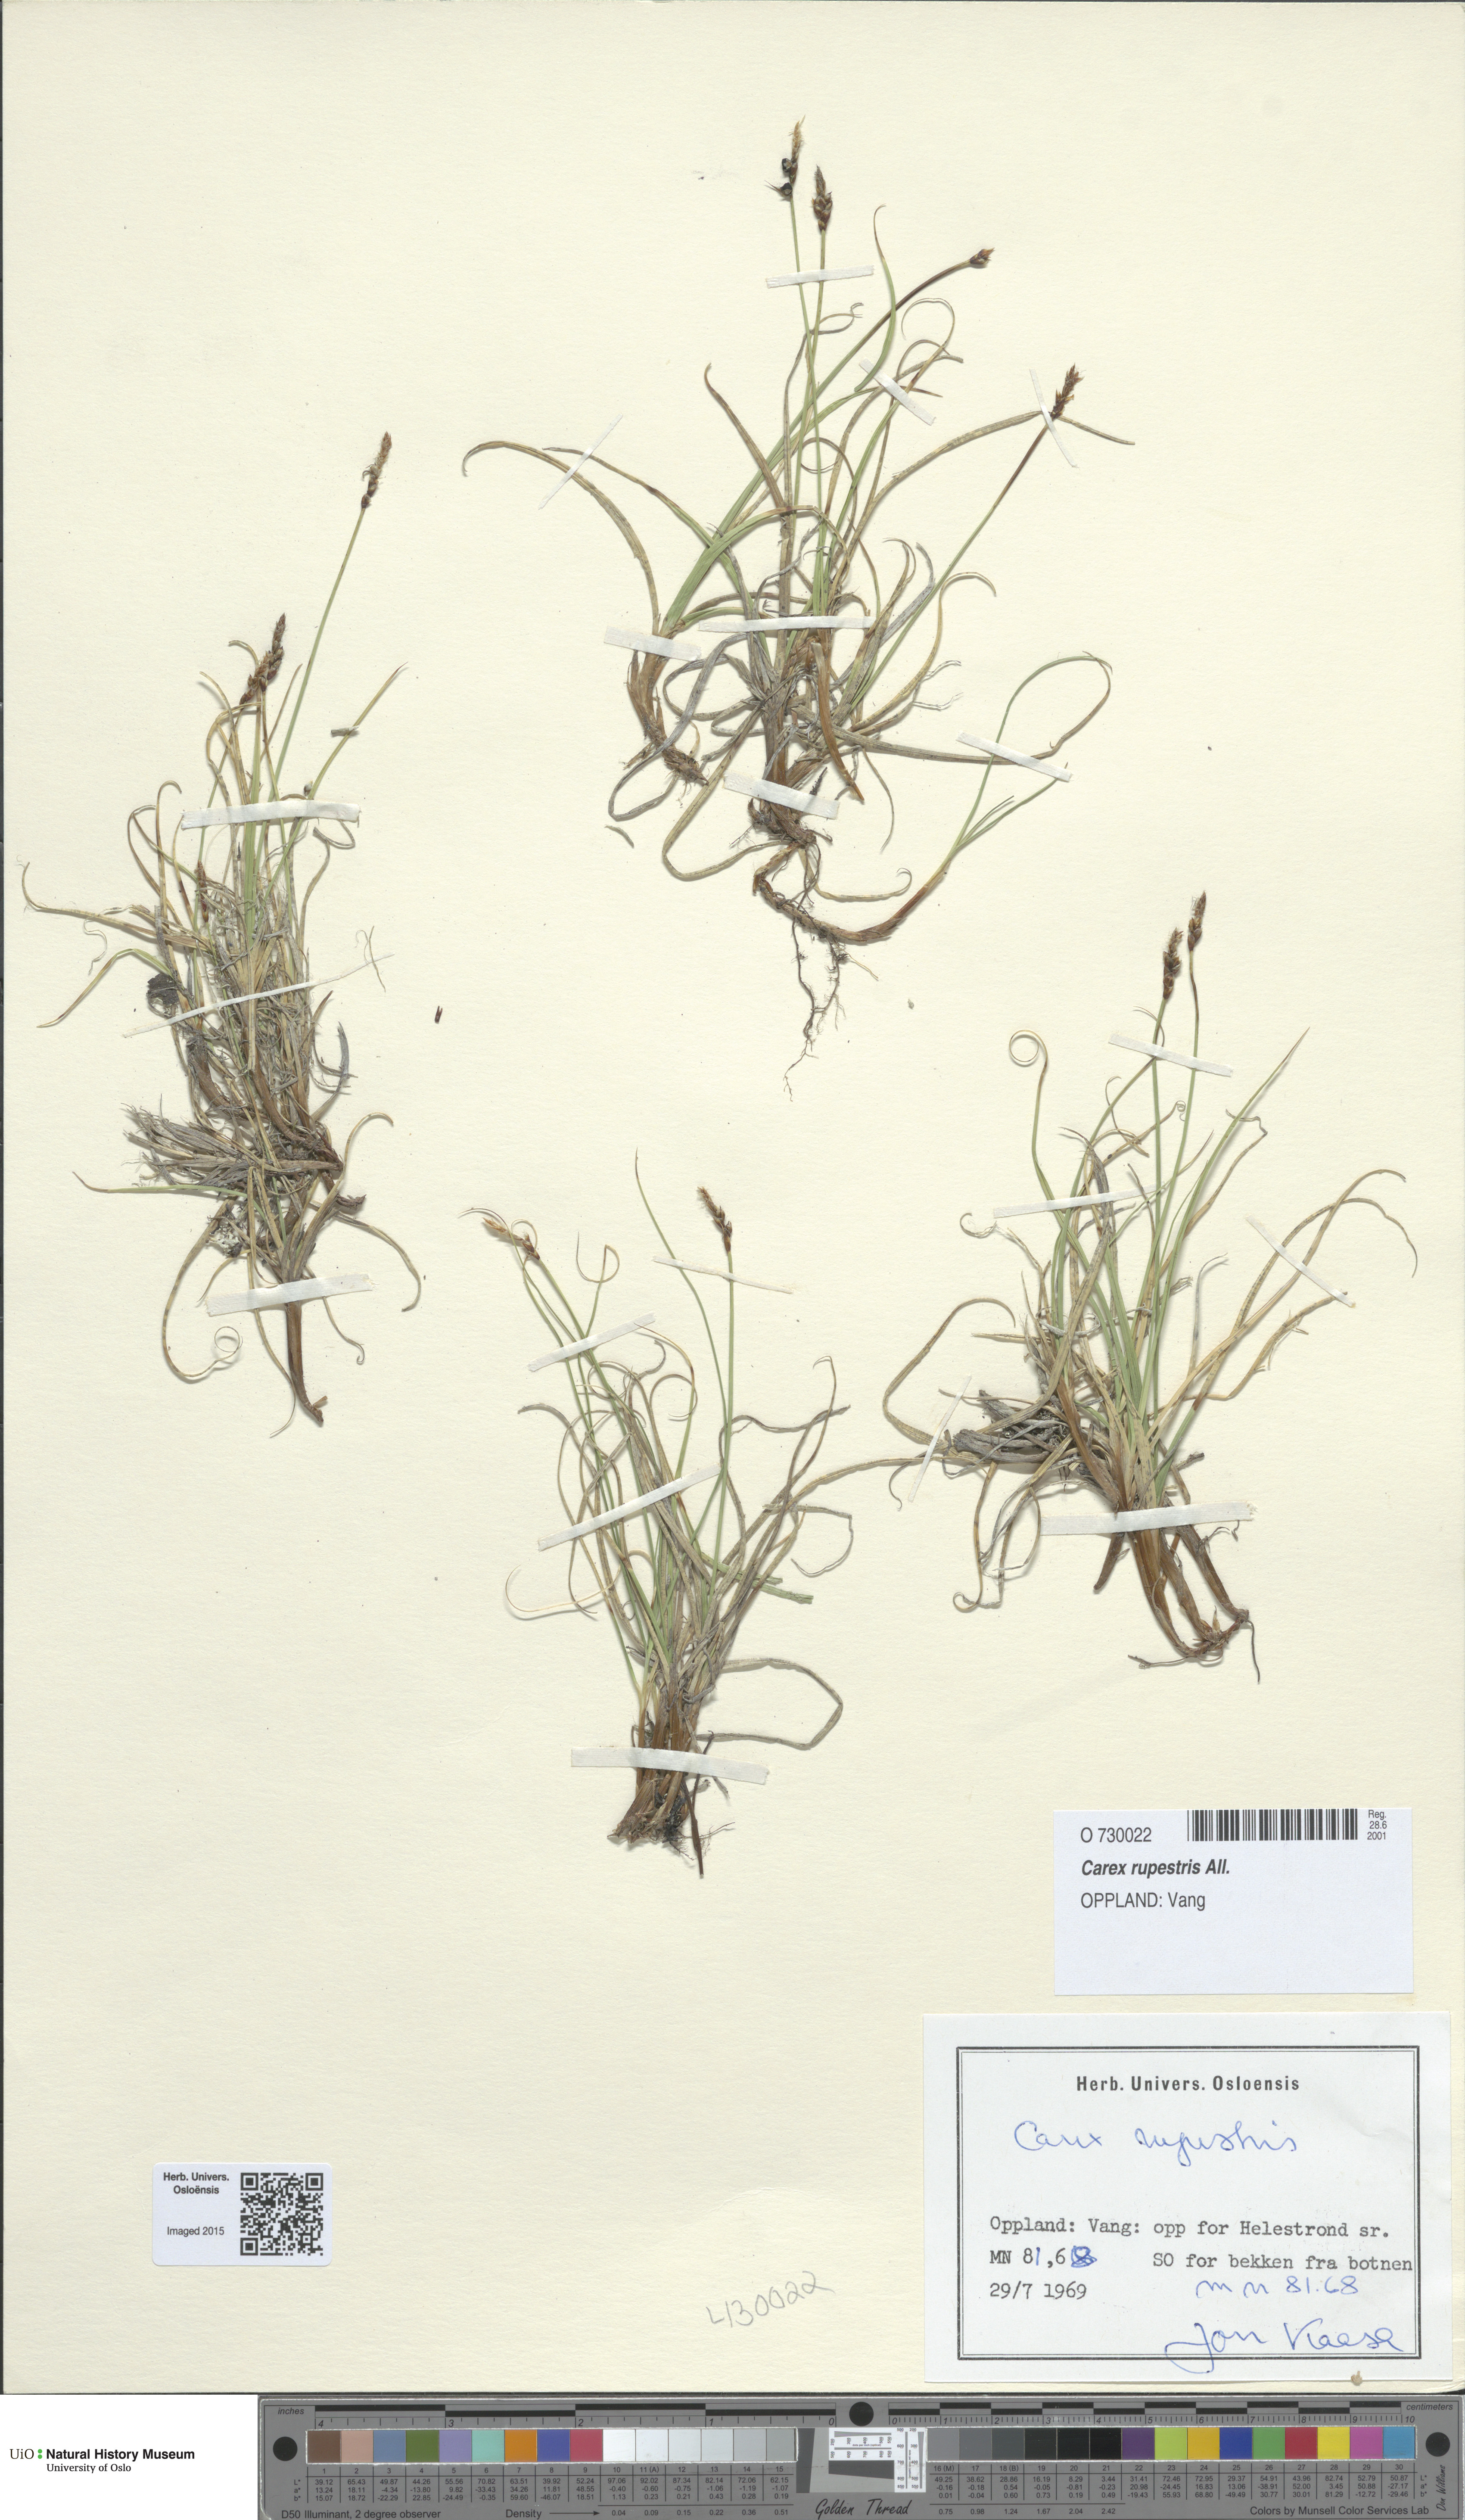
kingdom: Plantae
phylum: Tracheophyta
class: Liliopsida
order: Poales
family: Cyperaceae
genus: Carex
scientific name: Carex rupestris
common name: Rock sedge
